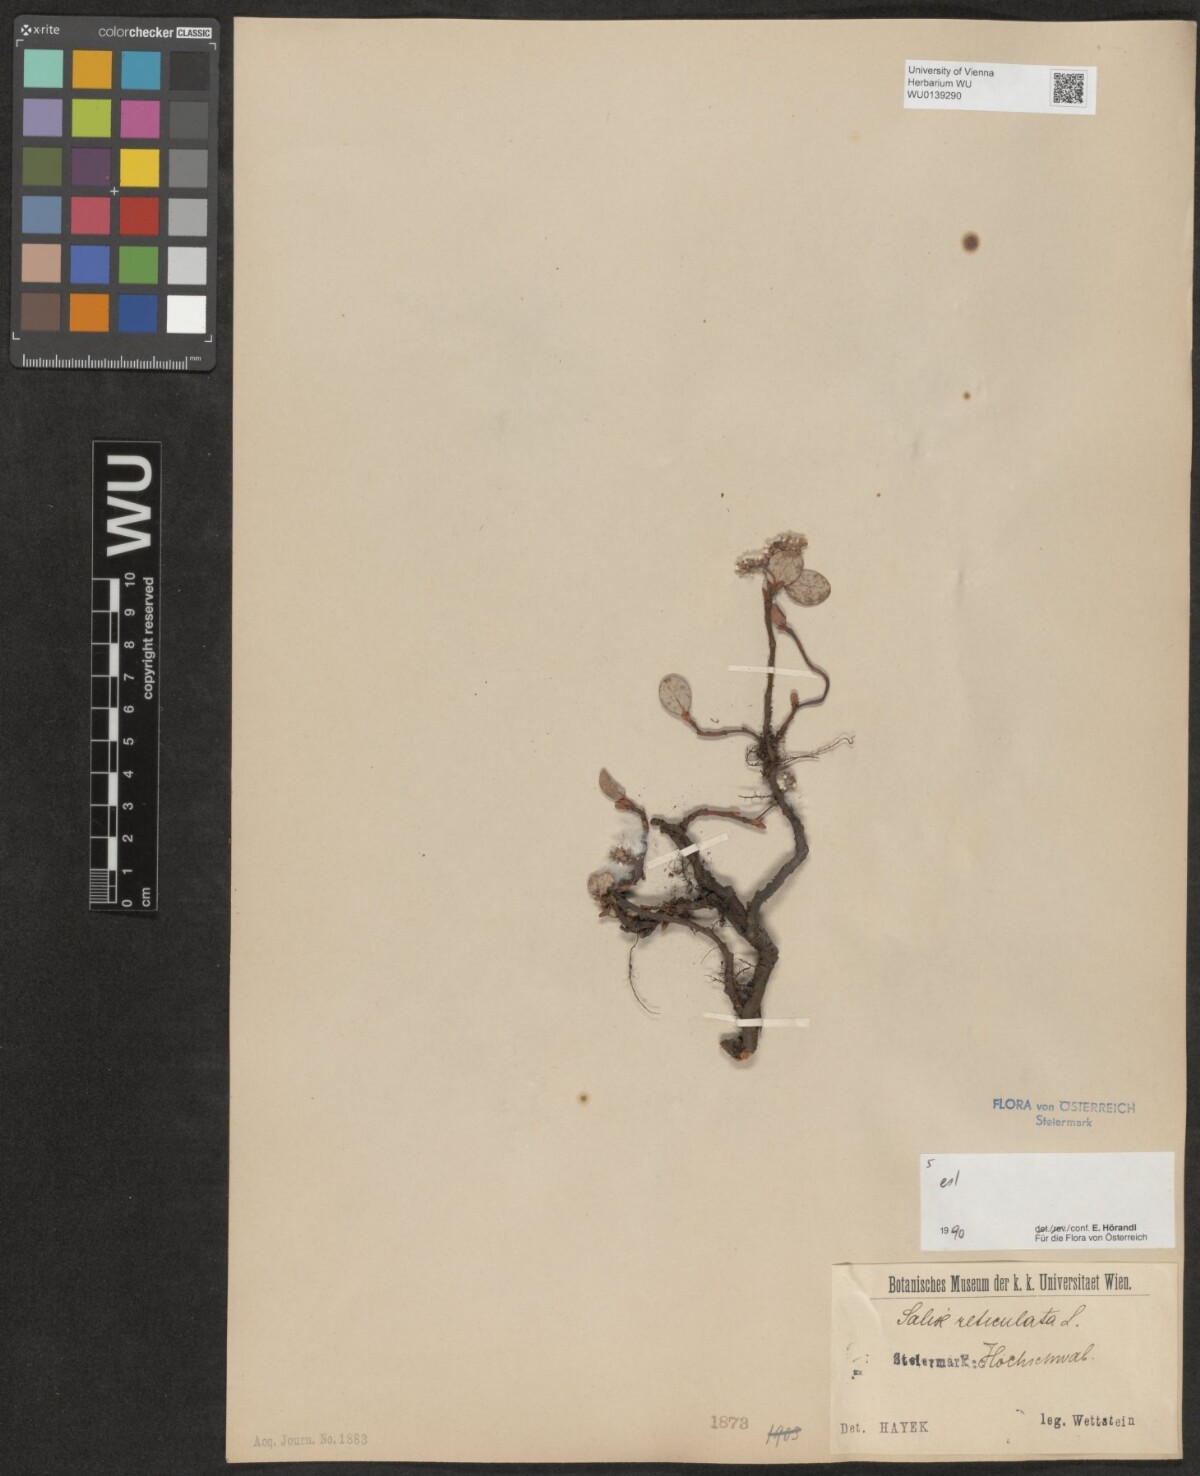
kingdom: Plantae
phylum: Tracheophyta
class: Magnoliopsida
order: Malpighiales
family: Salicaceae
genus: Salix
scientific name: Salix reticulata
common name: Net-leaved willow
